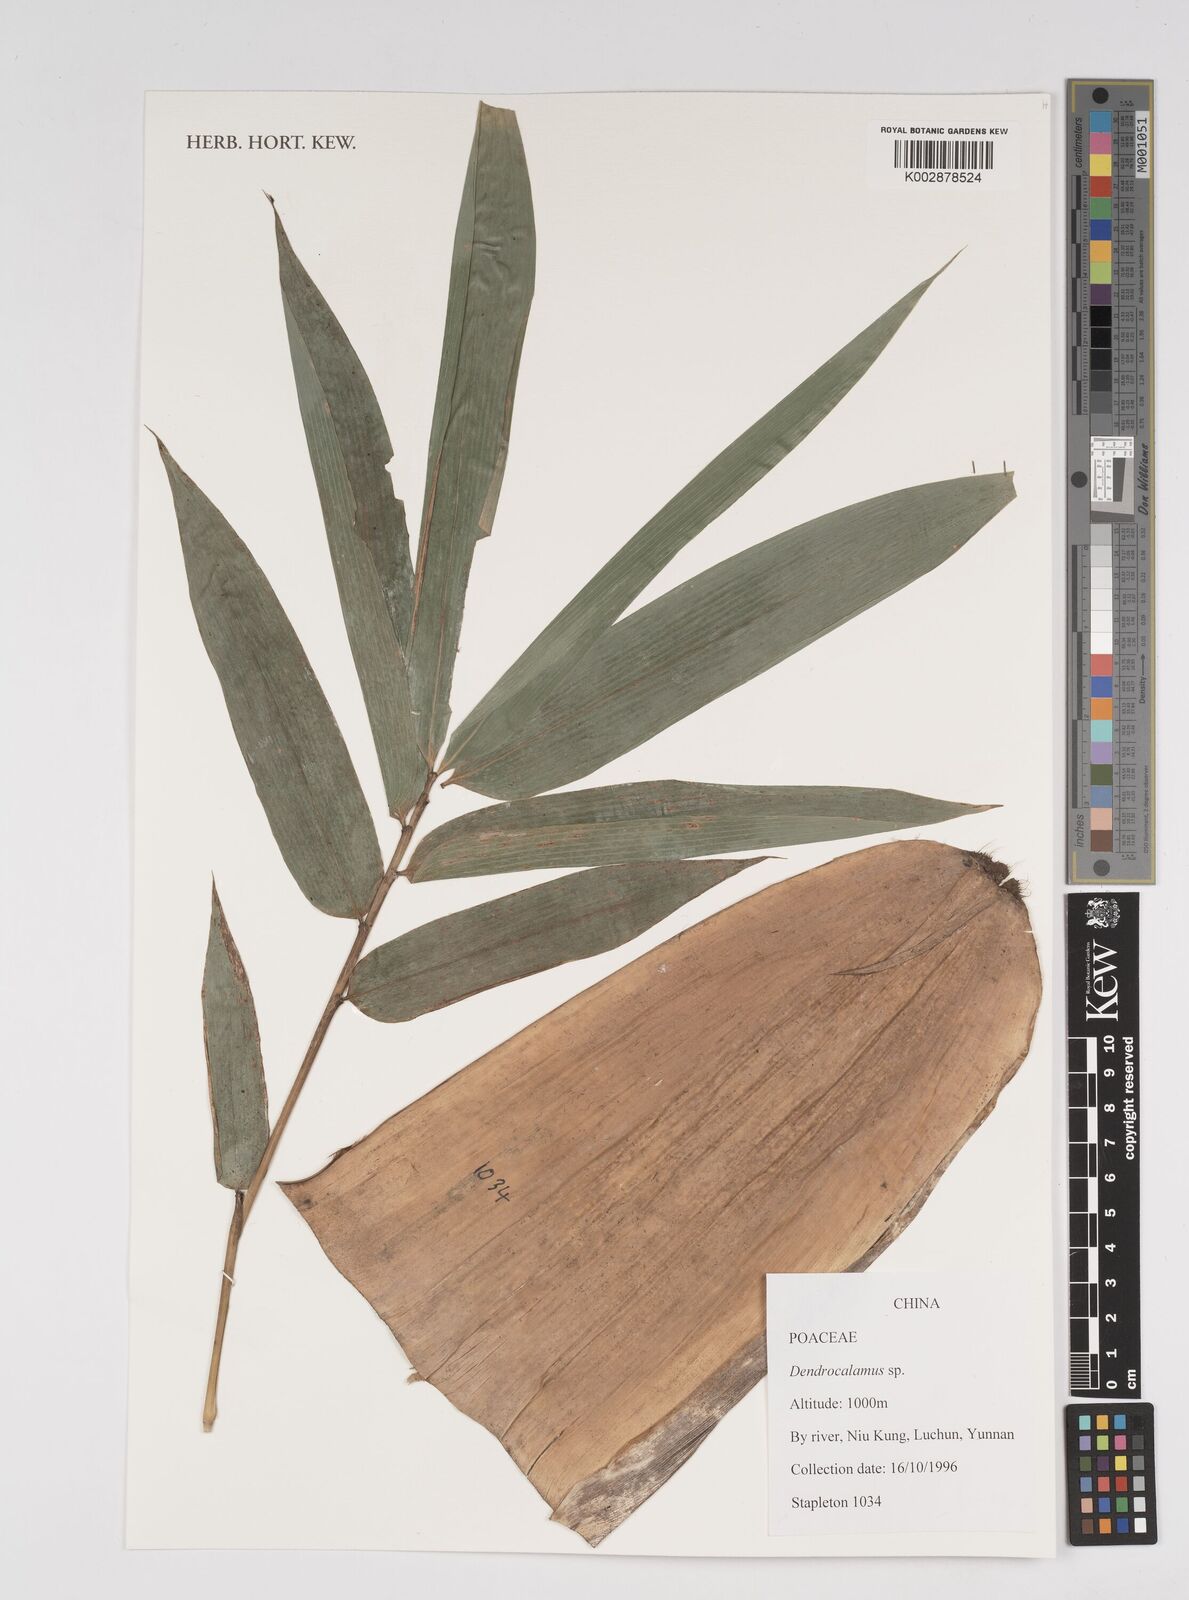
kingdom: Plantae
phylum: Tracheophyta
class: Liliopsida
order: Poales
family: Poaceae
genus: Dendrocalamus
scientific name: Dendrocalamus
